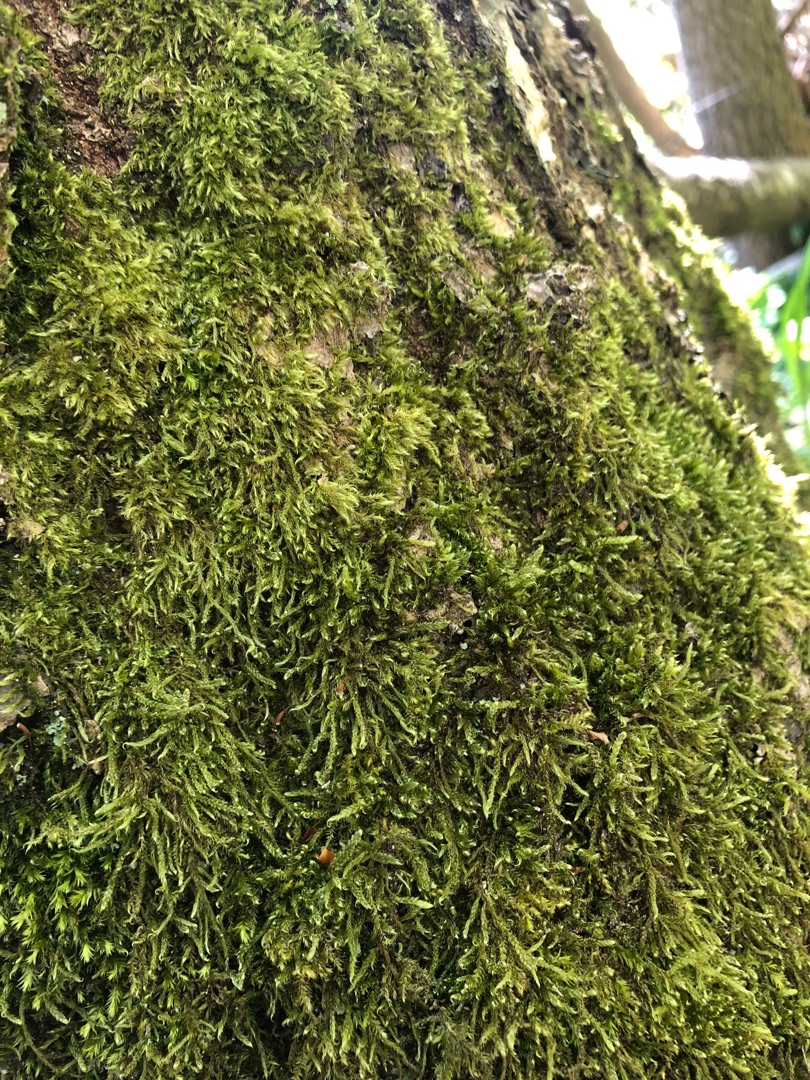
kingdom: Plantae
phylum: Bryophyta
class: Bryopsida
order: Hypnales
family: Hypnaceae
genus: Hypnum
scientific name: Hypnum cupressiforme
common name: Almindelig cypresmos
